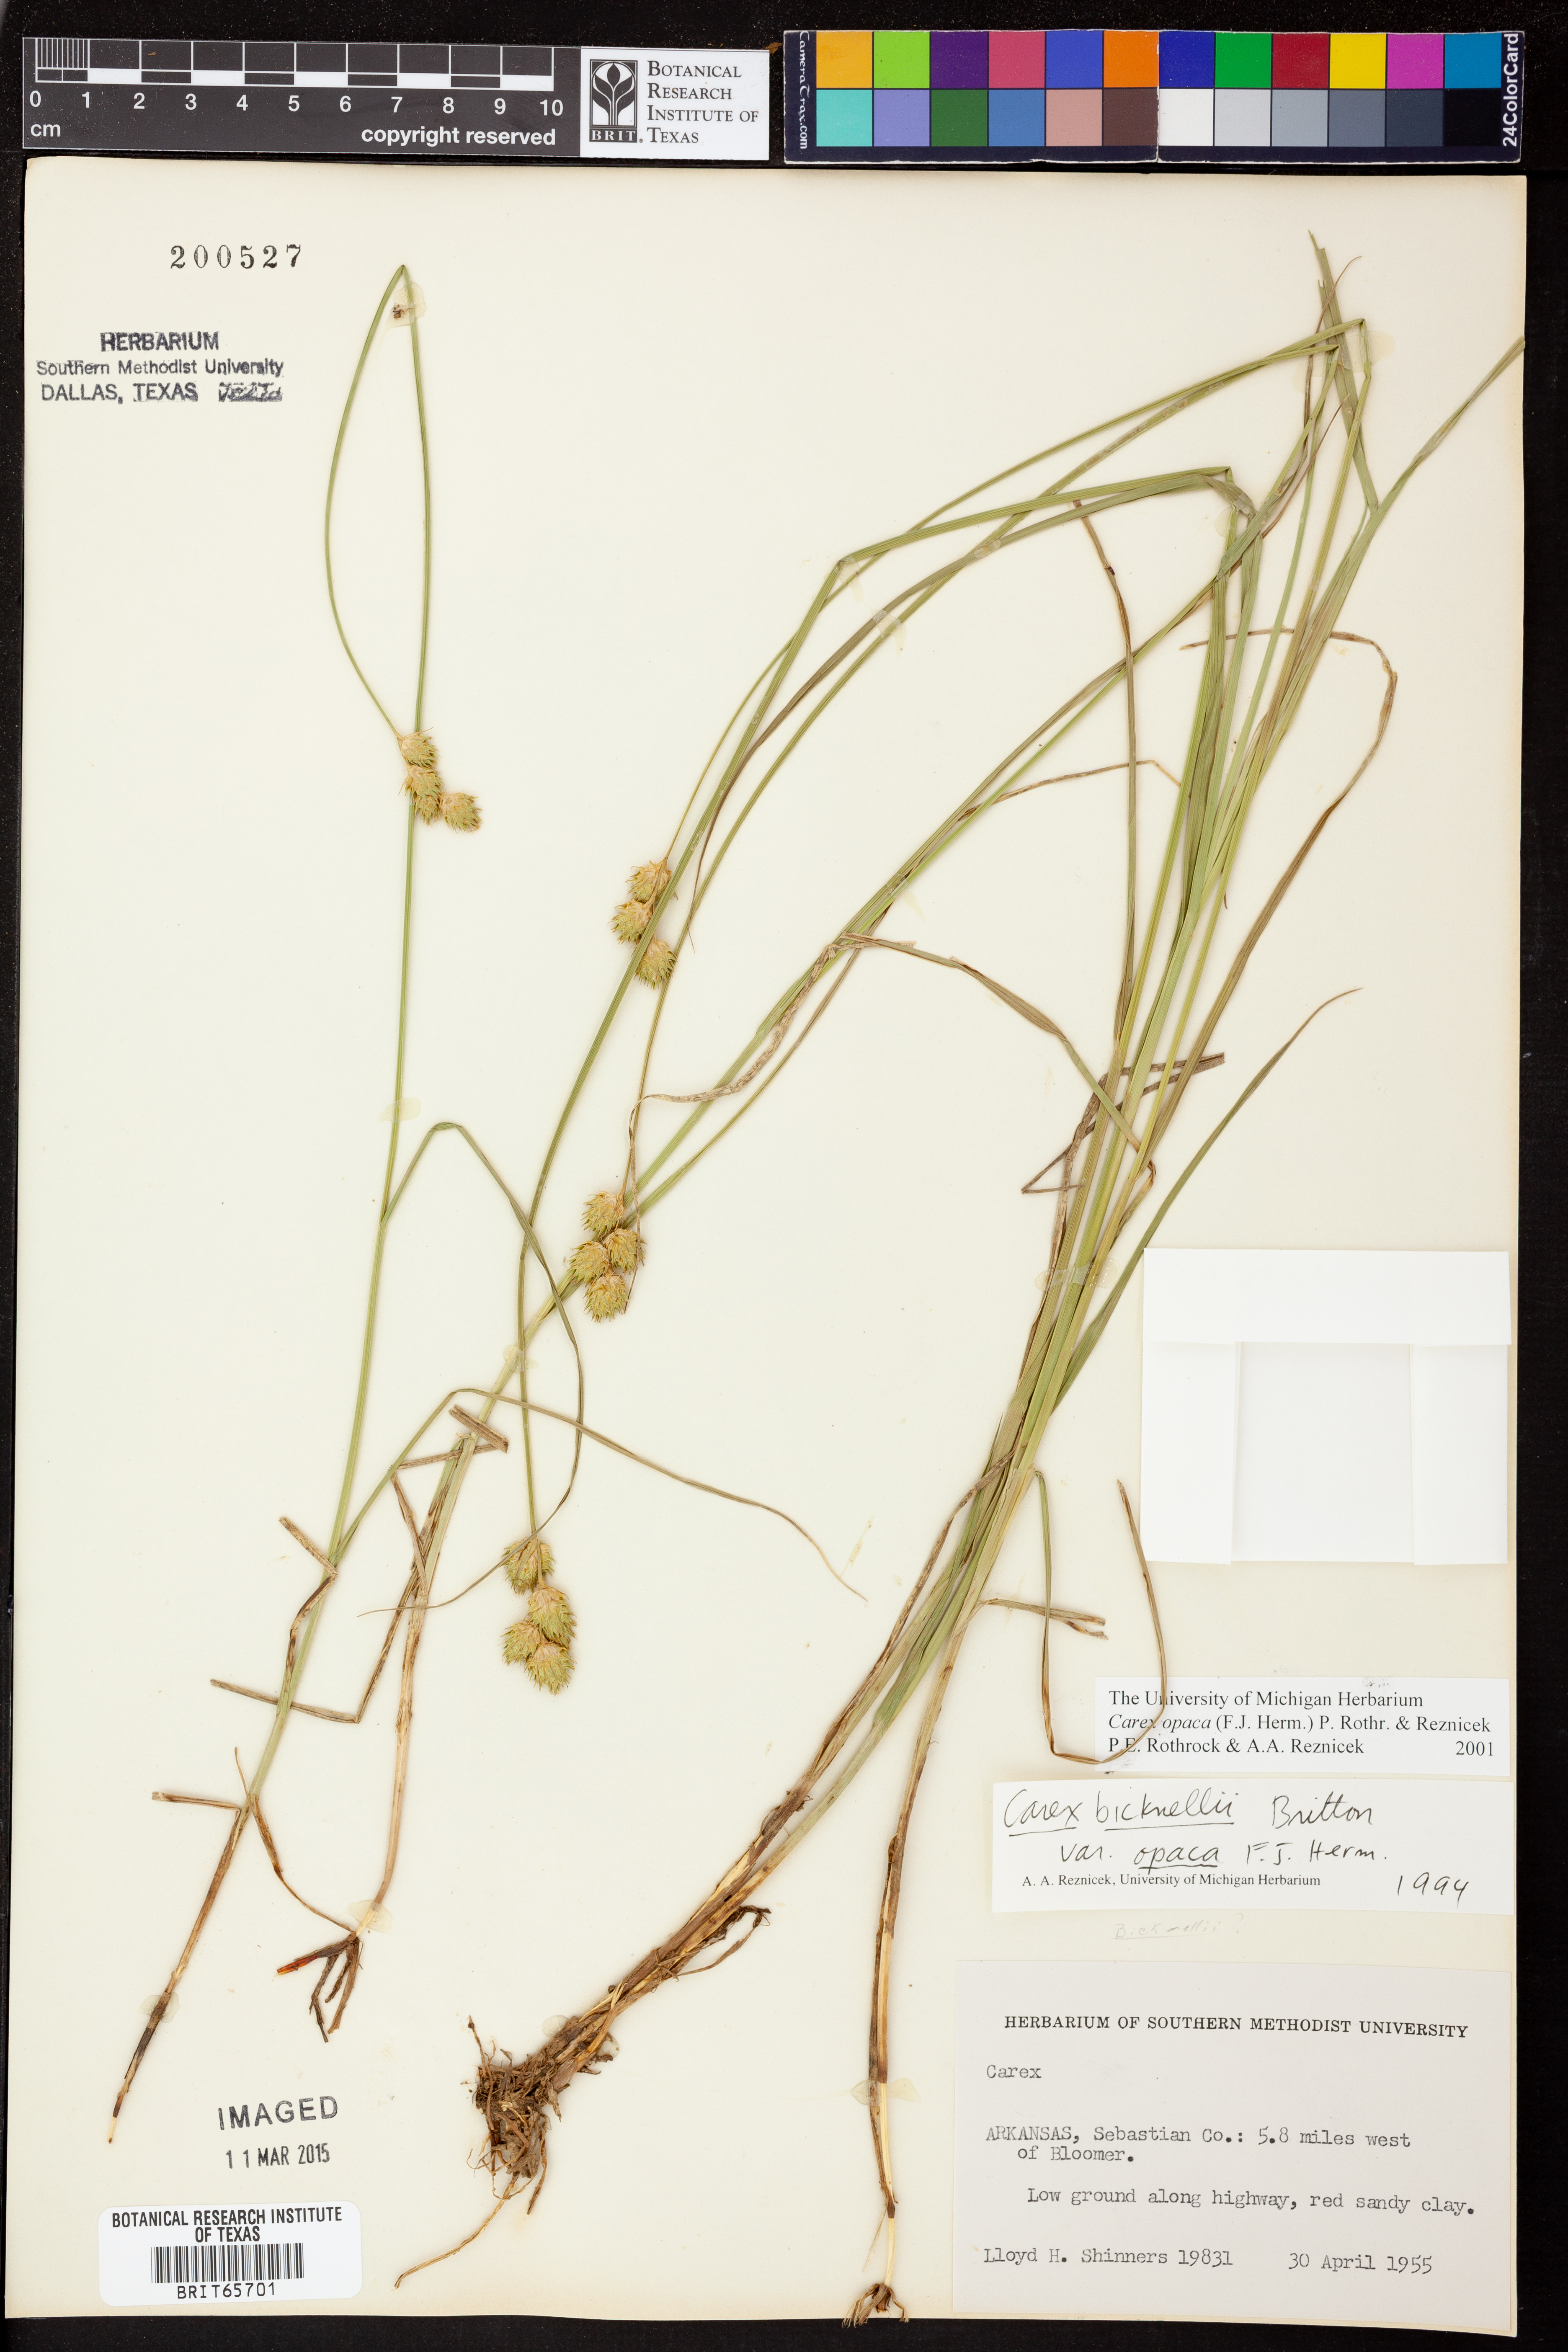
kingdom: Plantae
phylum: Tracheophyta
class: Liliopsida
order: Poales
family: Cyperaceae
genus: Carex
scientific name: Carex opaca
